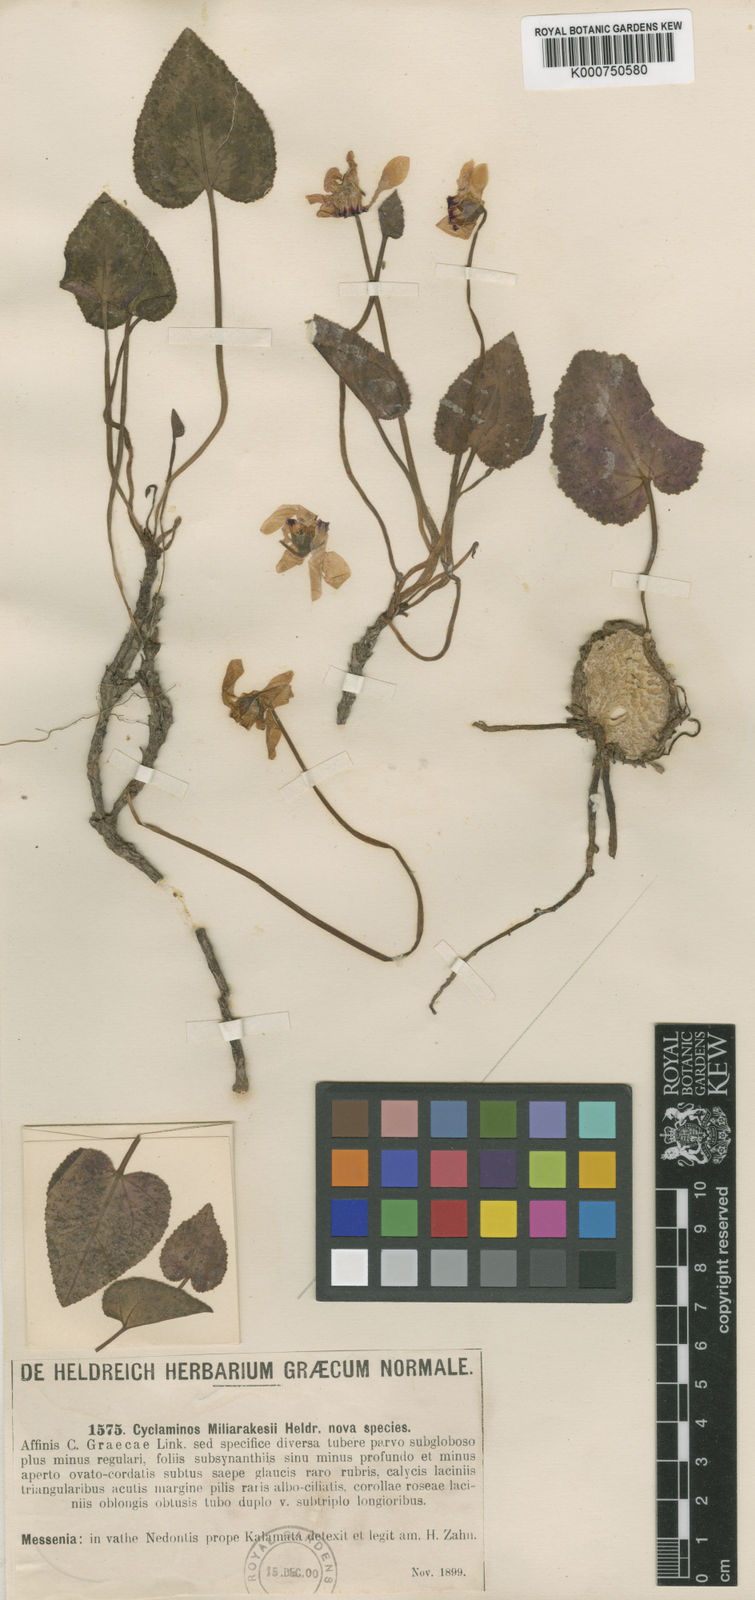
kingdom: Plantae
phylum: Tracheophyta
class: Magnoliopsida
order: Ericales
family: Primulaceae
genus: Cyclamen
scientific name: Cyclamen
